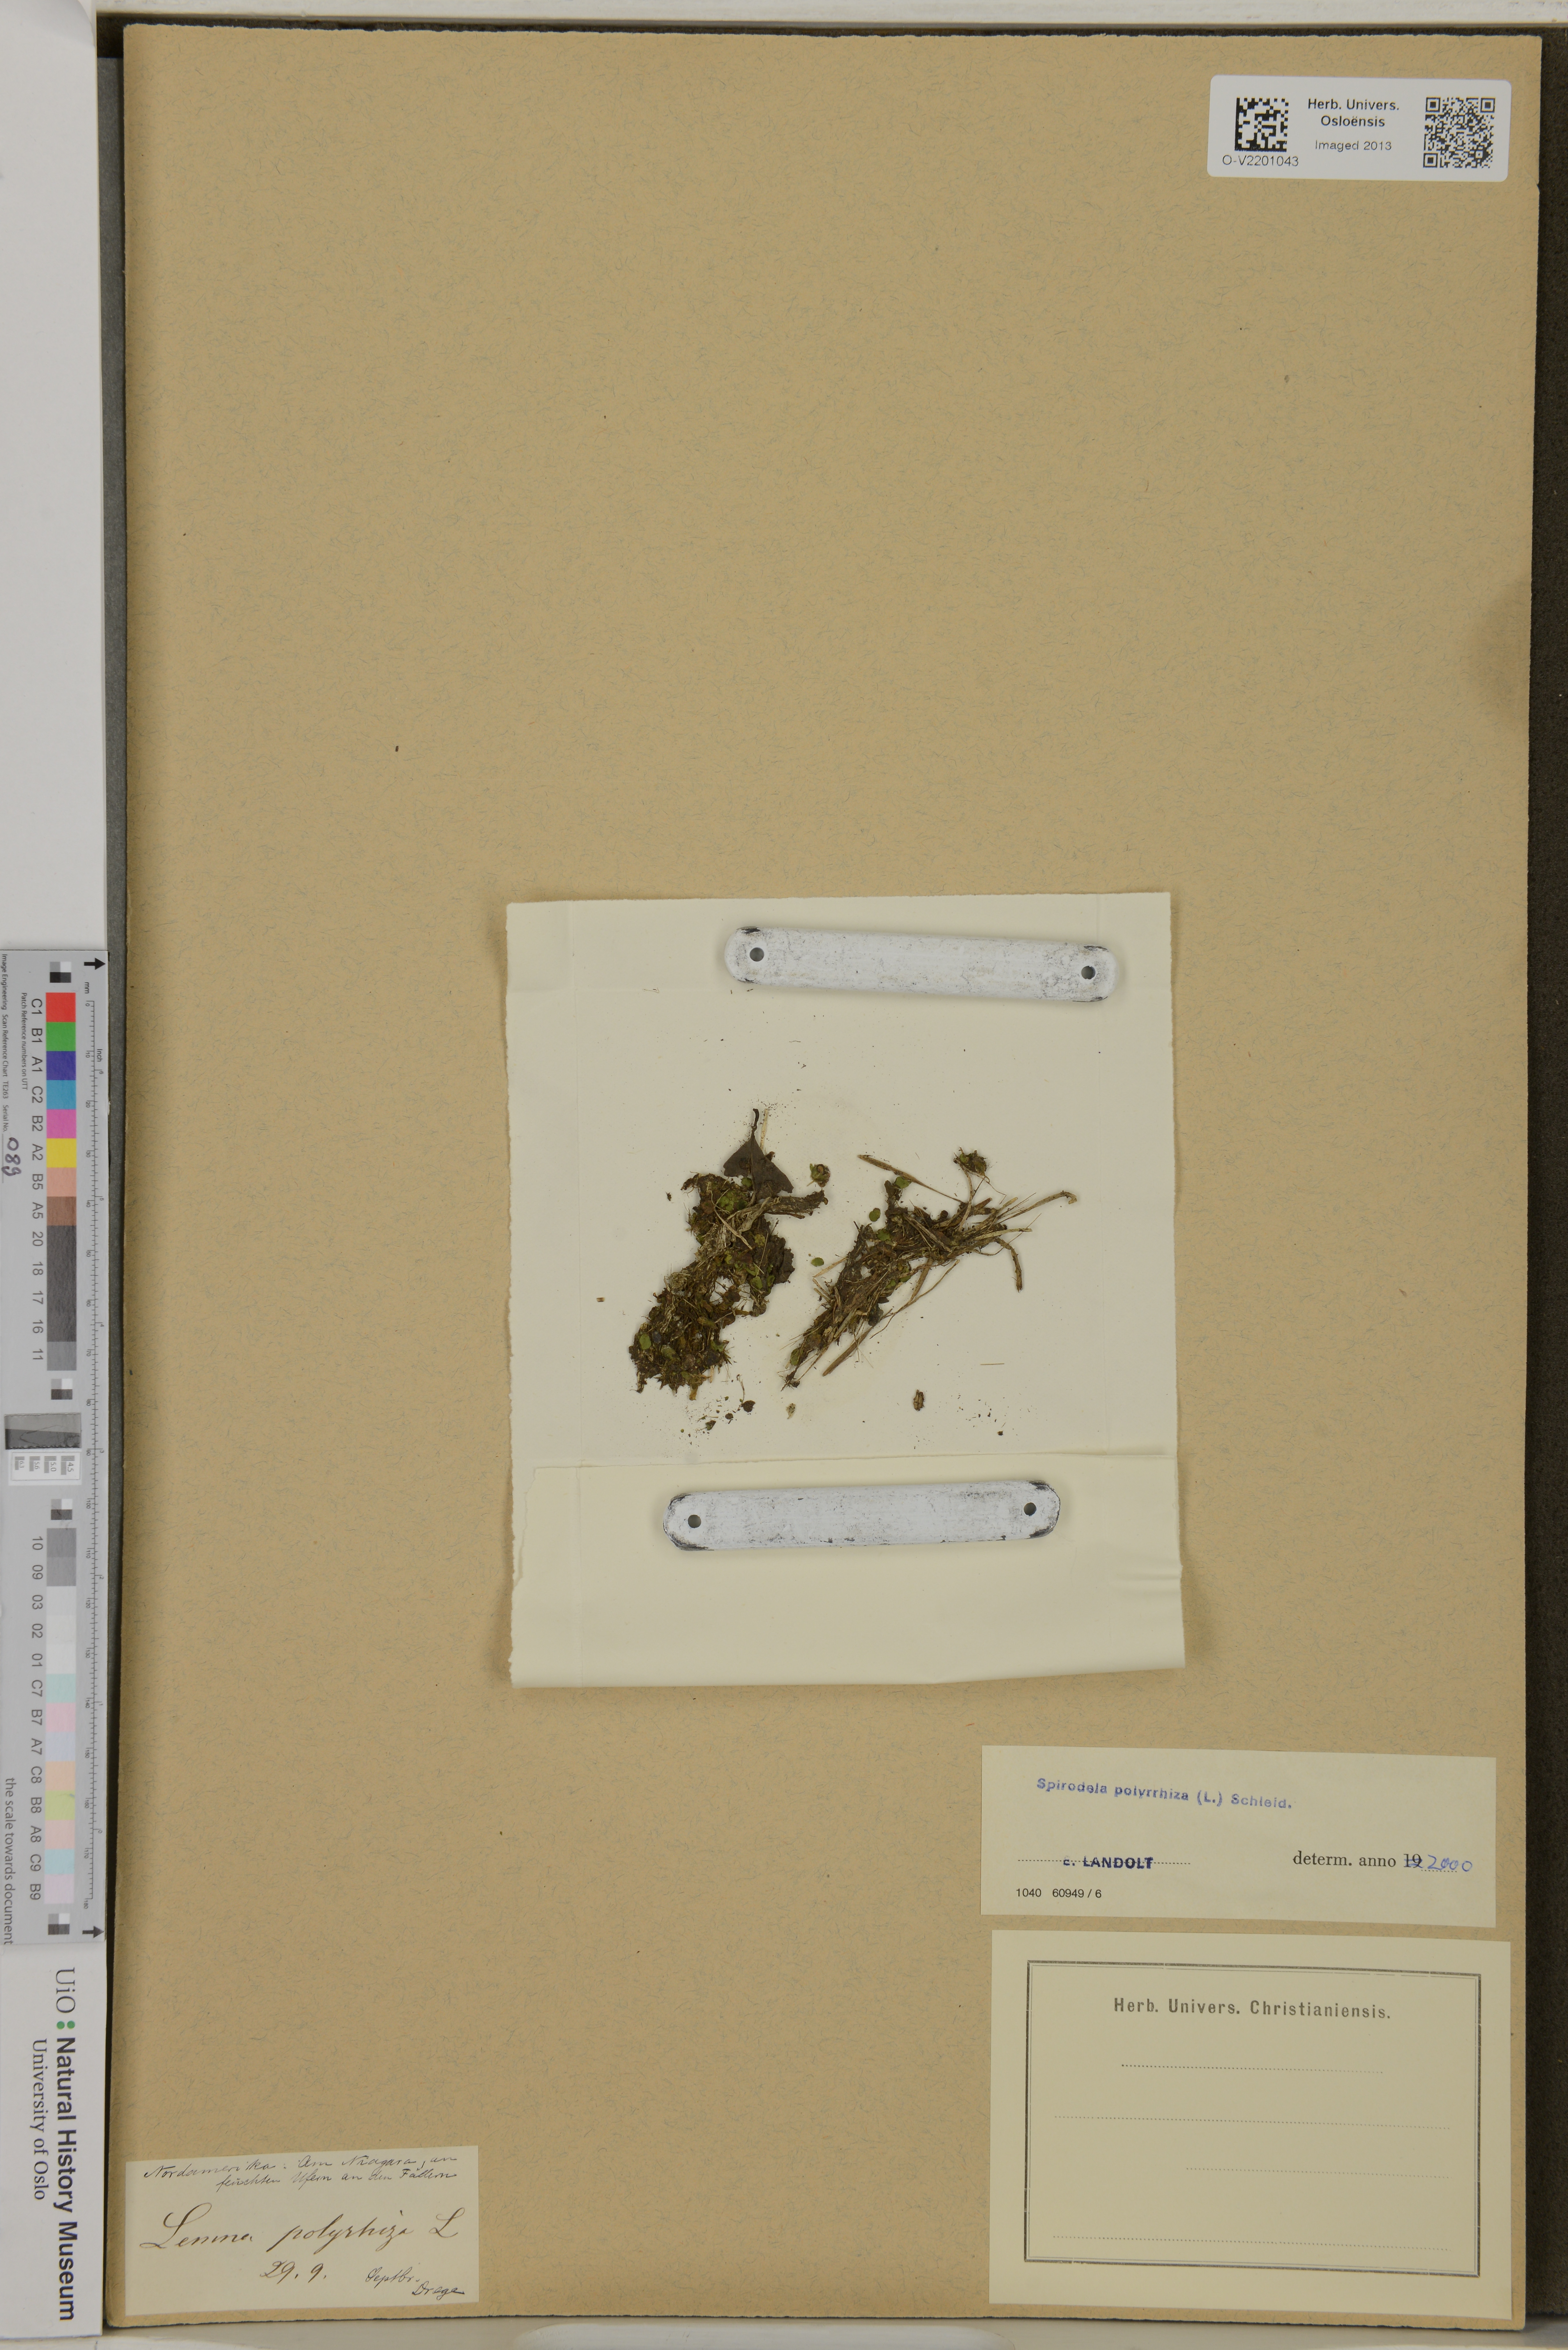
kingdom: Plantae
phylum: Tracheophyta
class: Liliopsida
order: Alismatales
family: Araceae
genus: Spirodela
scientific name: Spirodela polyrhiza
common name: Great duckweed
